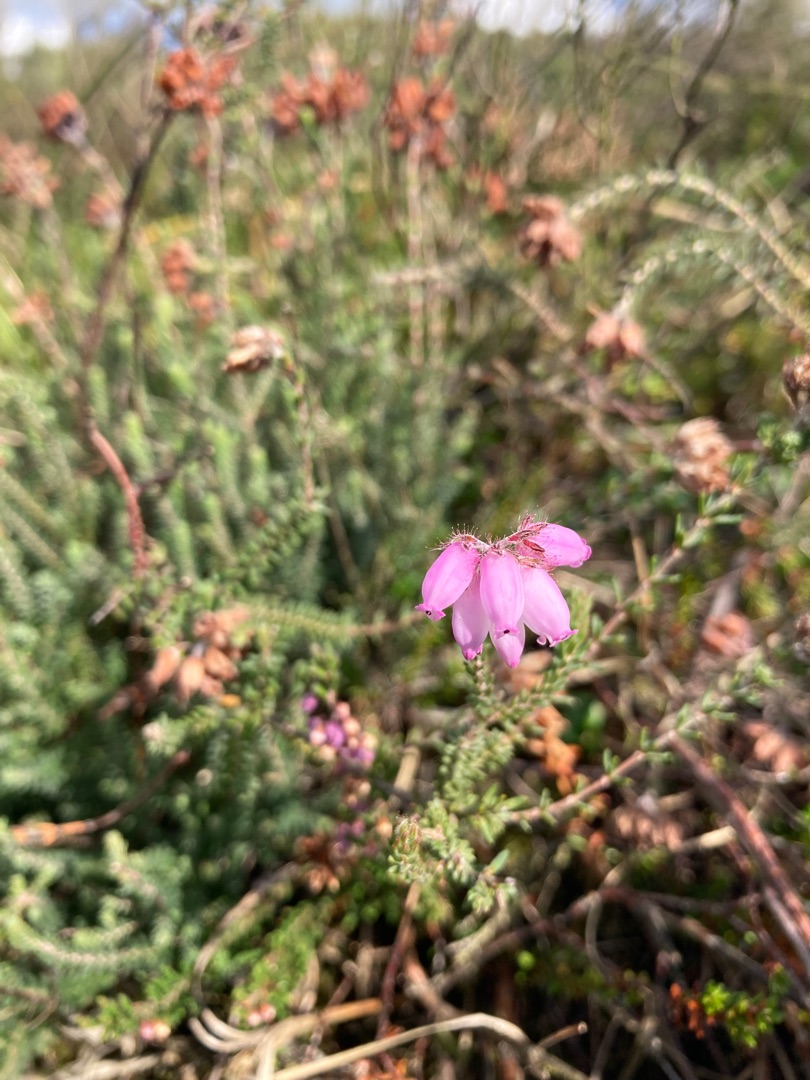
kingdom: Plantae
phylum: Tracheophyta
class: Magnoliopsida
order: Ericales
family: Ericaceae
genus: Erica
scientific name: Erica tetralix
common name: Klokkelyng
